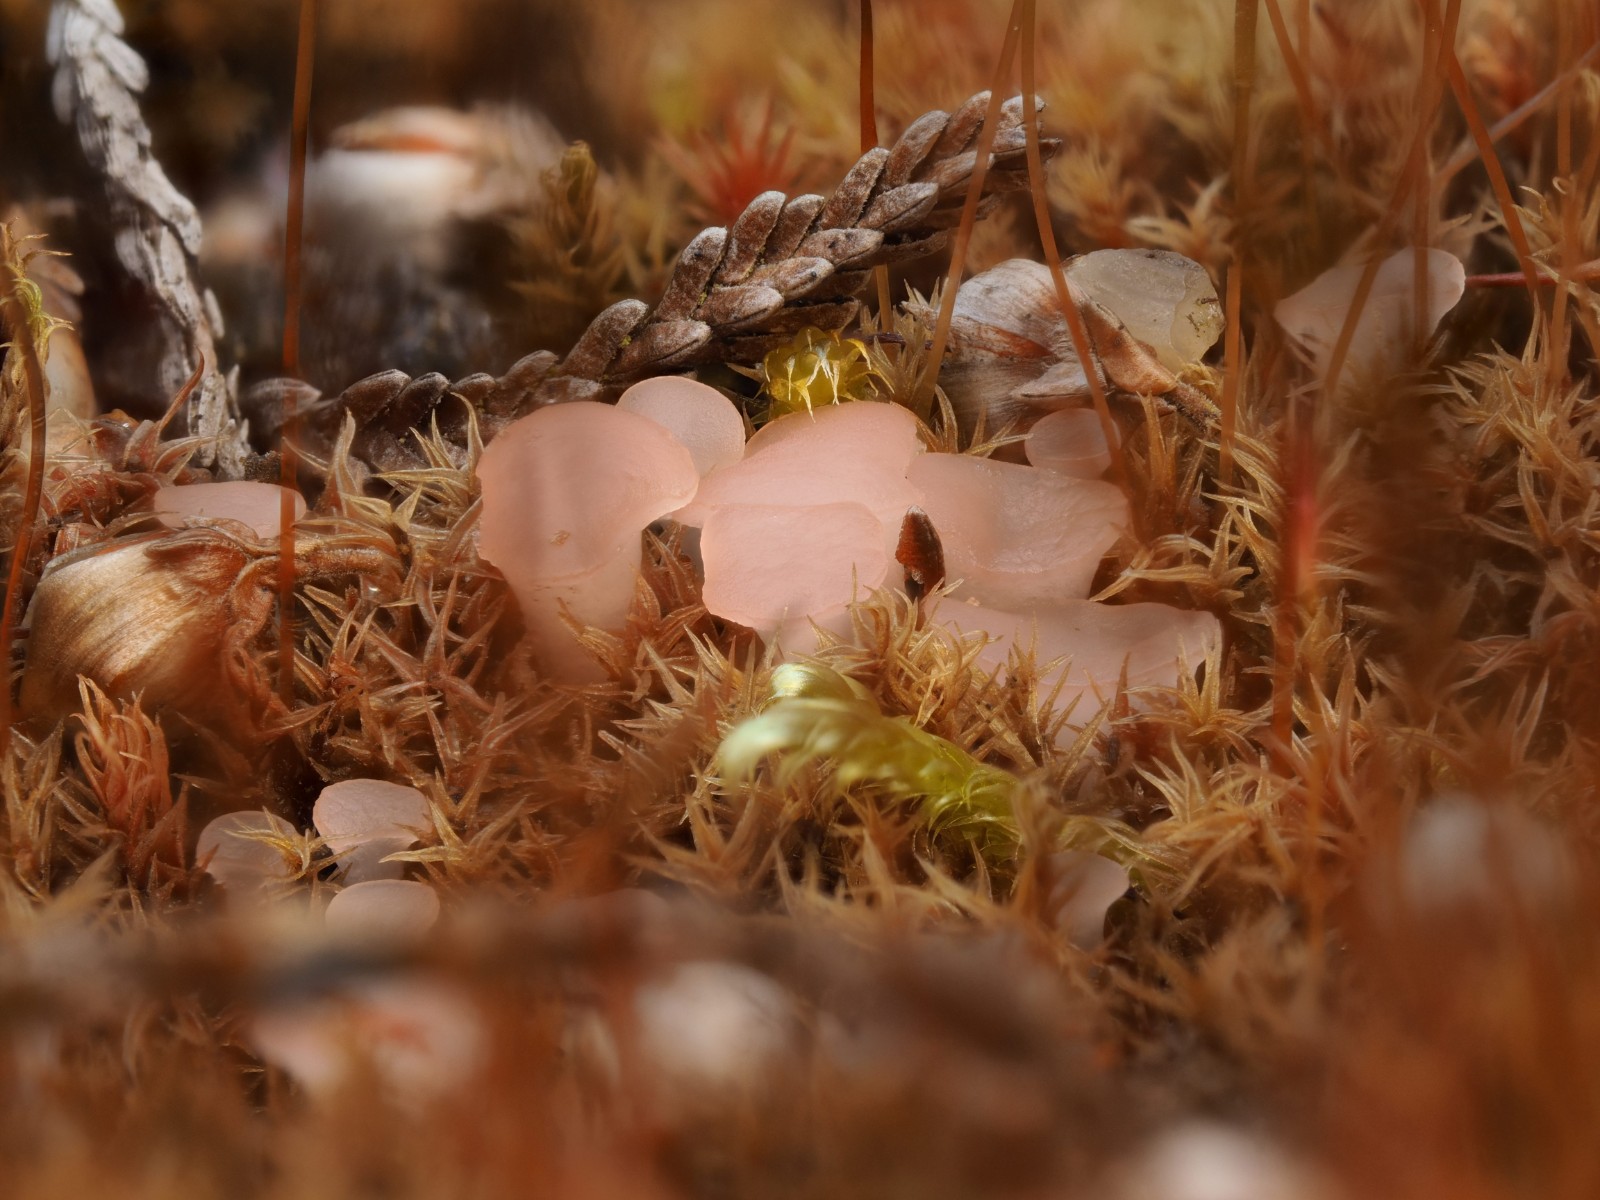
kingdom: Fungi
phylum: Ascomycota
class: Leotiomycetes
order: Helotiales
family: Hyaloscyphaceae
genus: Roseodiscus
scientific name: Roseodiscus formosus
